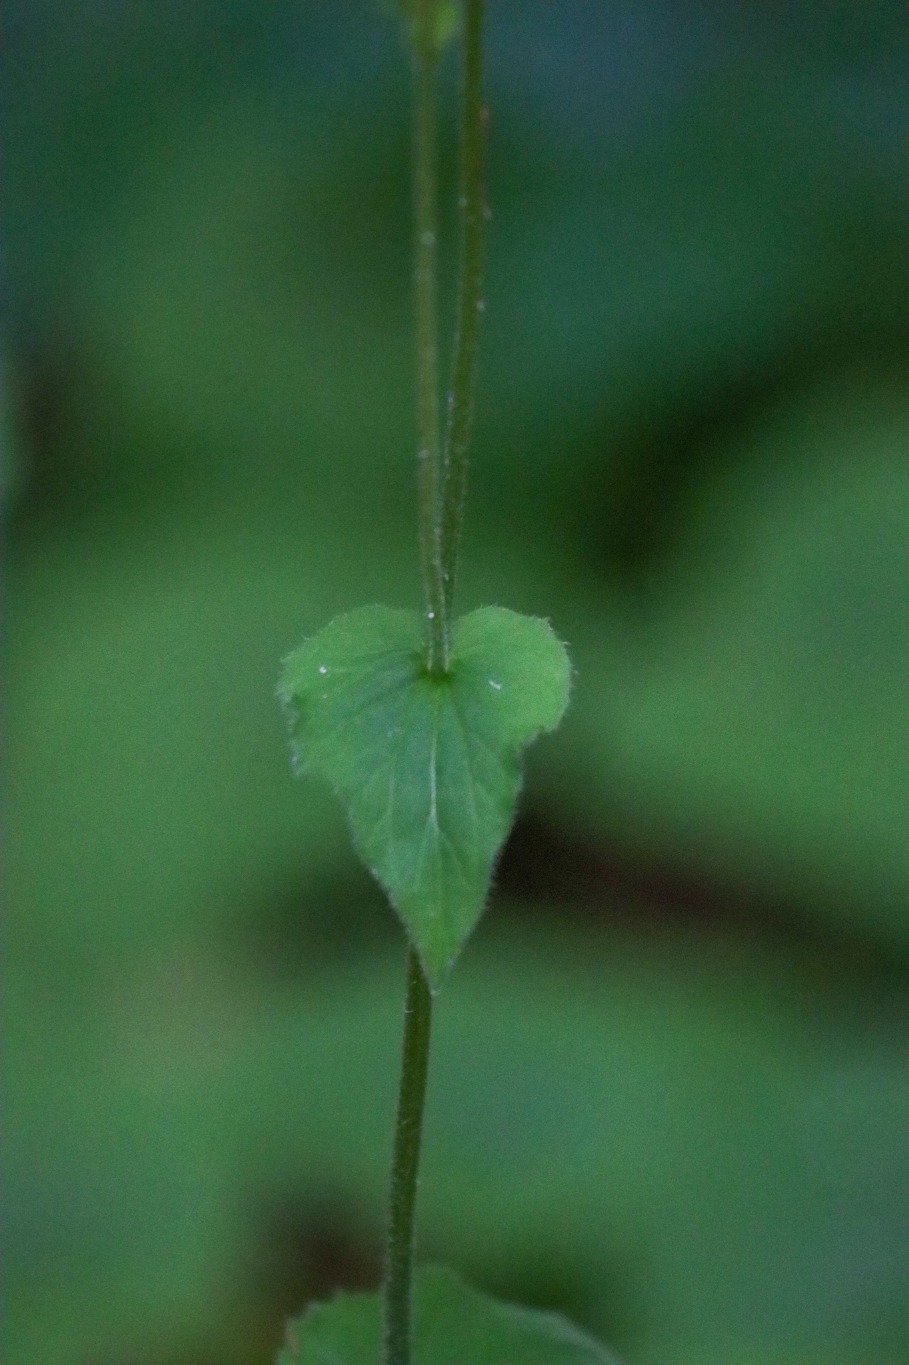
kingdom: Plantae
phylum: Tracheophyta
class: Magnoliopsida
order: Asterales
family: Asteraceae
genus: Doronicum
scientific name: Doronicum
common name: Gemserodslægten
